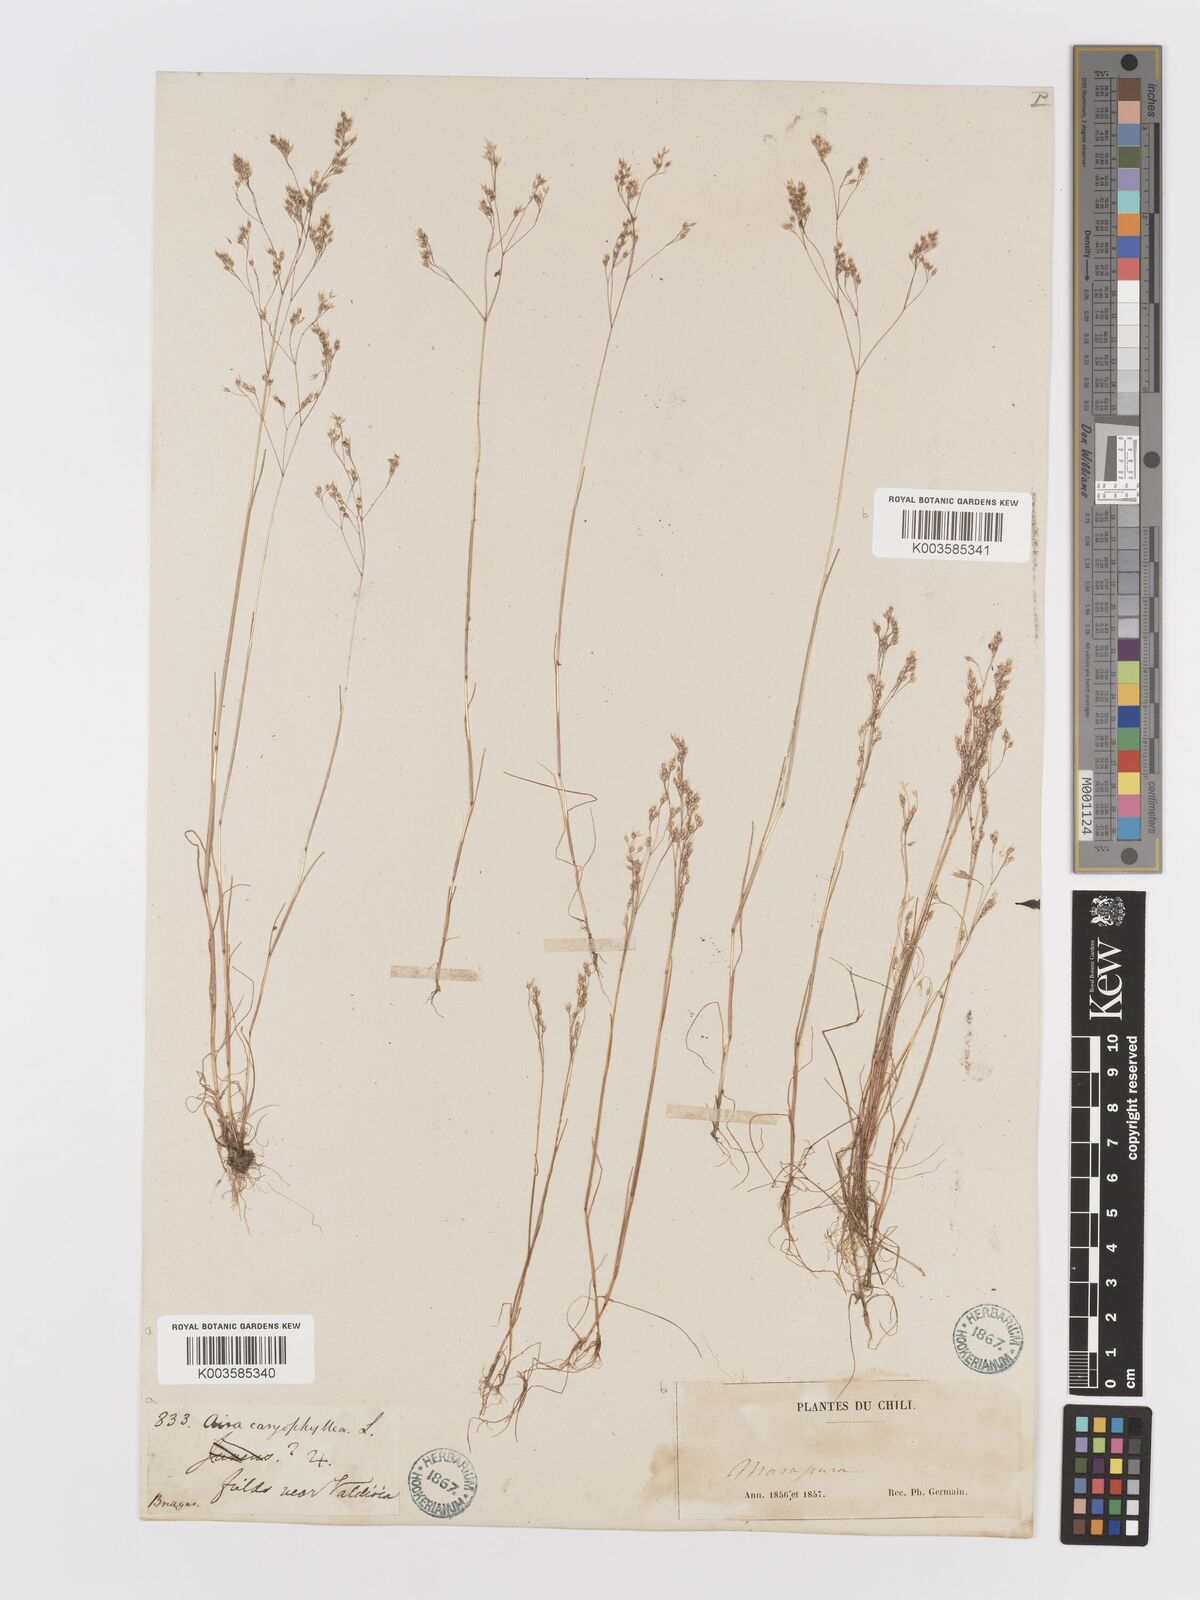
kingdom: Plantae
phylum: Tracheophyta
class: Liliopsida
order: Poales
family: Poaceae
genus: Aira
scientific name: Aira caryophyllea
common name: Silver hairgrass
